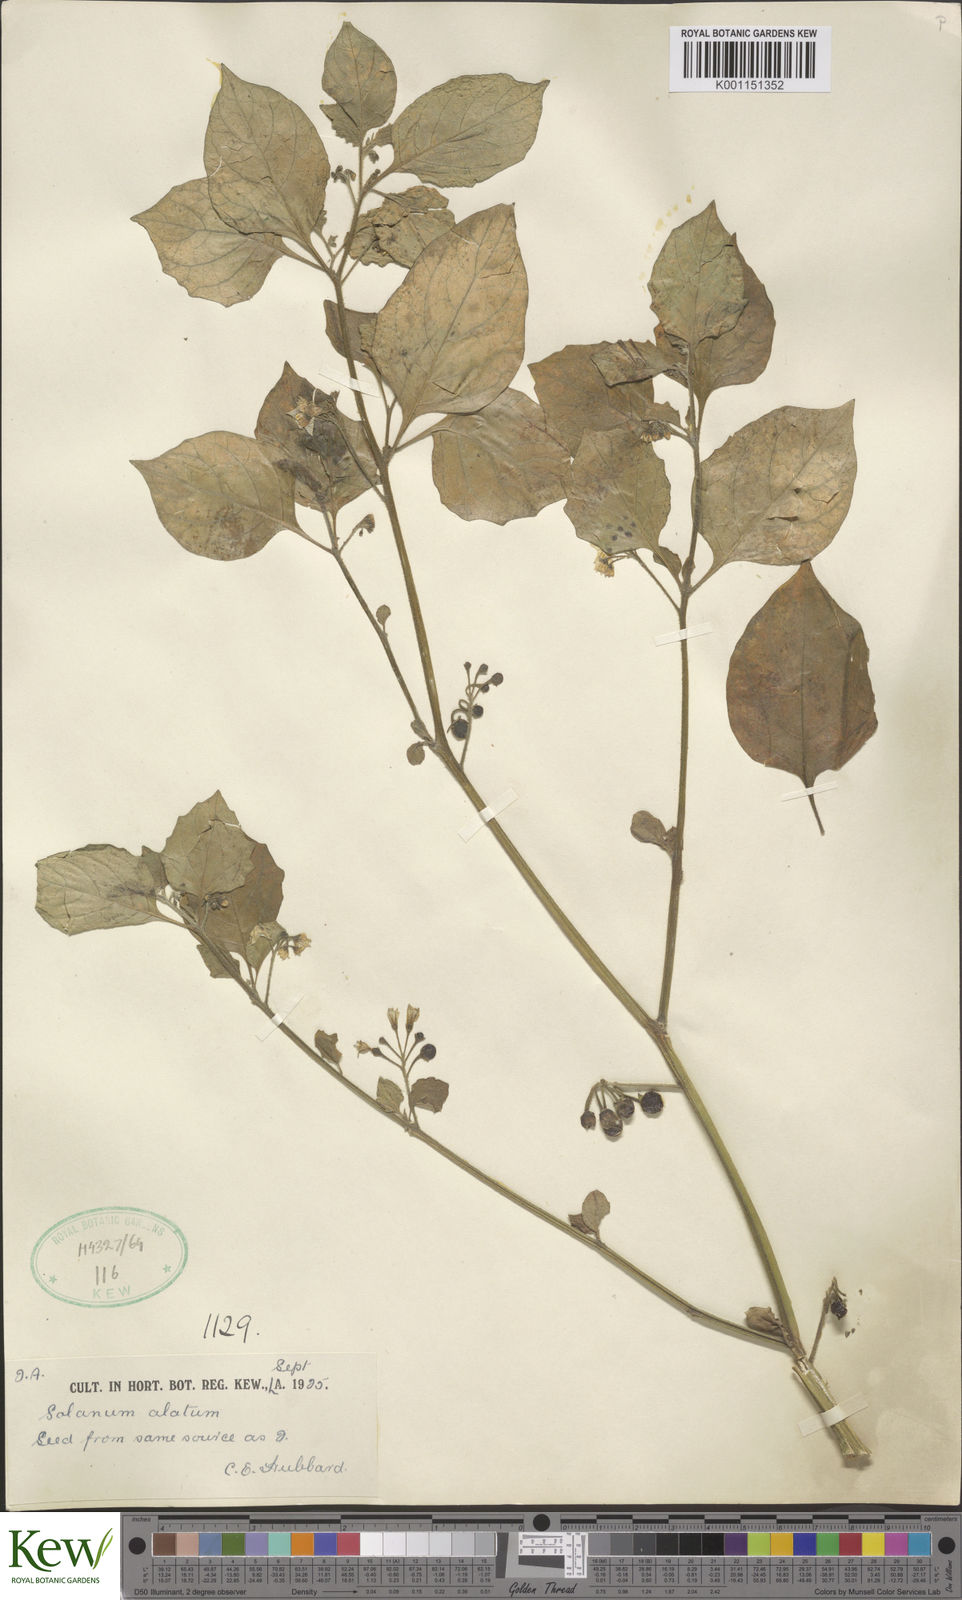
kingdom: Plantae
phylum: Tracheophyta
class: Magnoliopsida
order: Solanales
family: Solanaceae
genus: Solanum
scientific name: Solanum alatum
